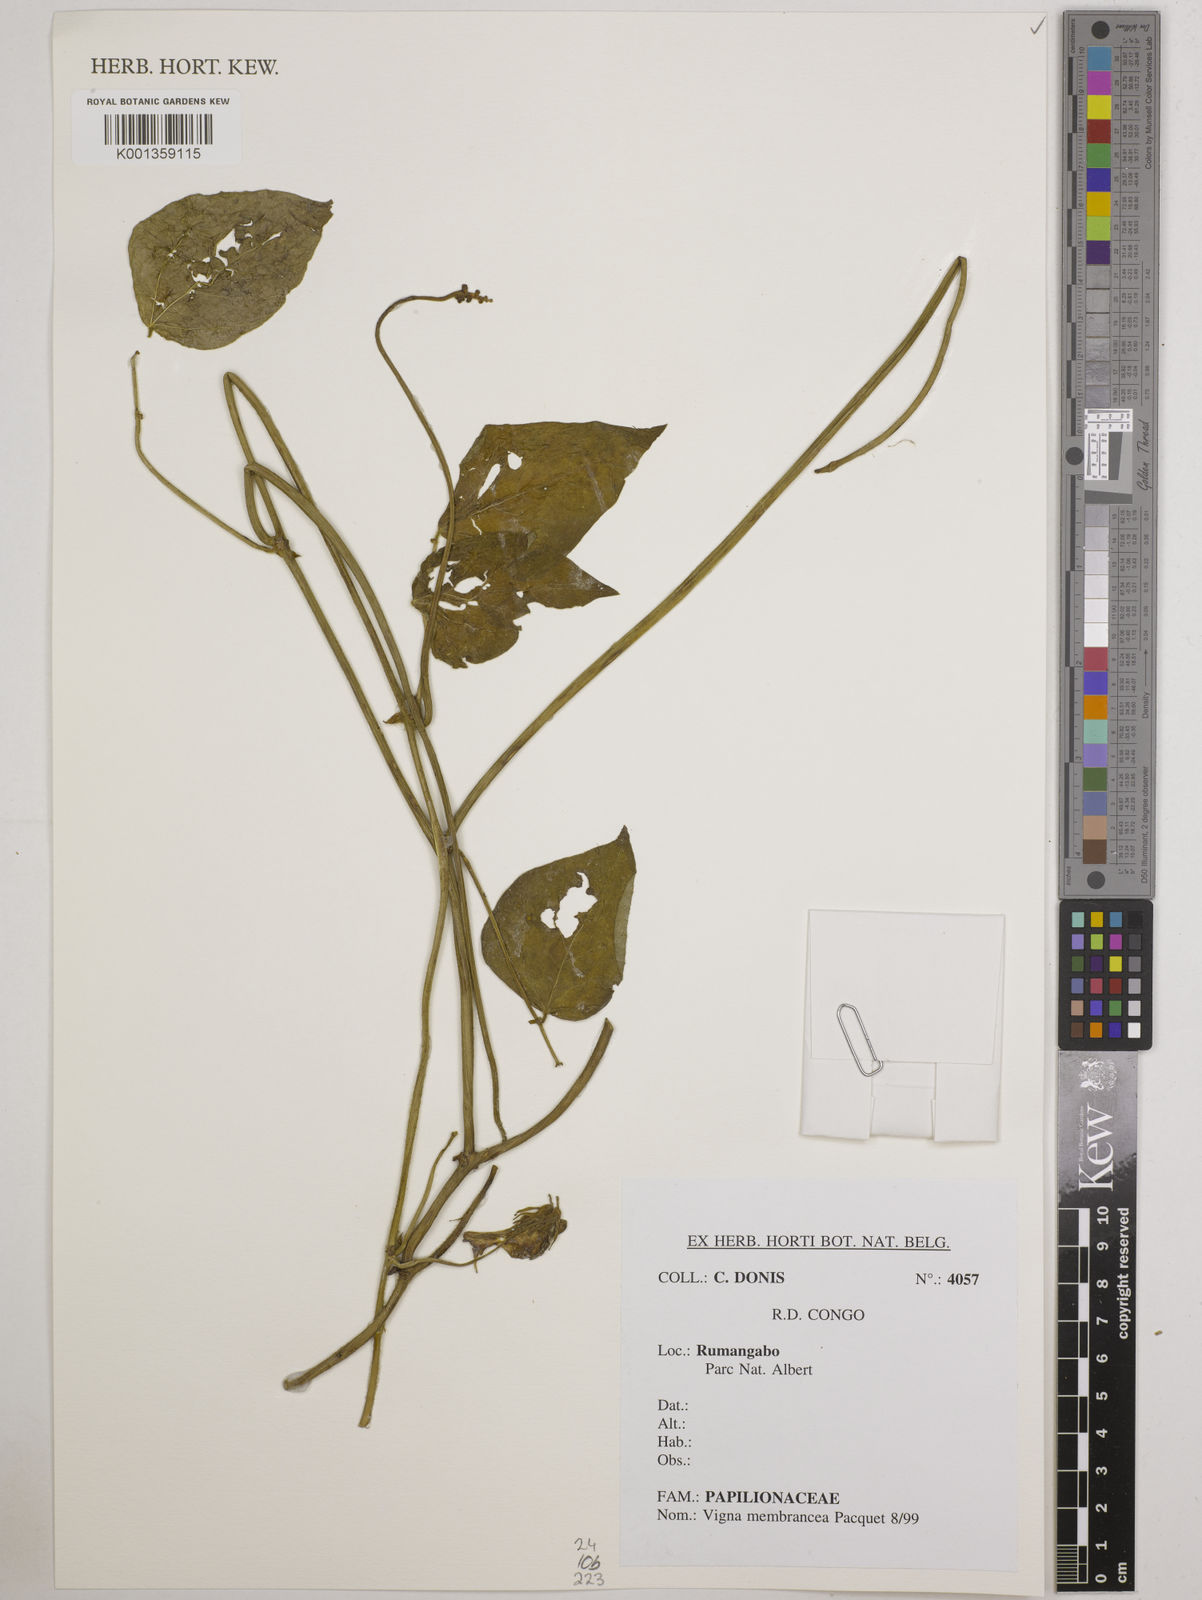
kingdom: Plantae
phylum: Tracheophyta
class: Magnoliopsida
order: Fabales
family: Fabaceae
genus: Vigna
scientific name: Vigna membranacea
